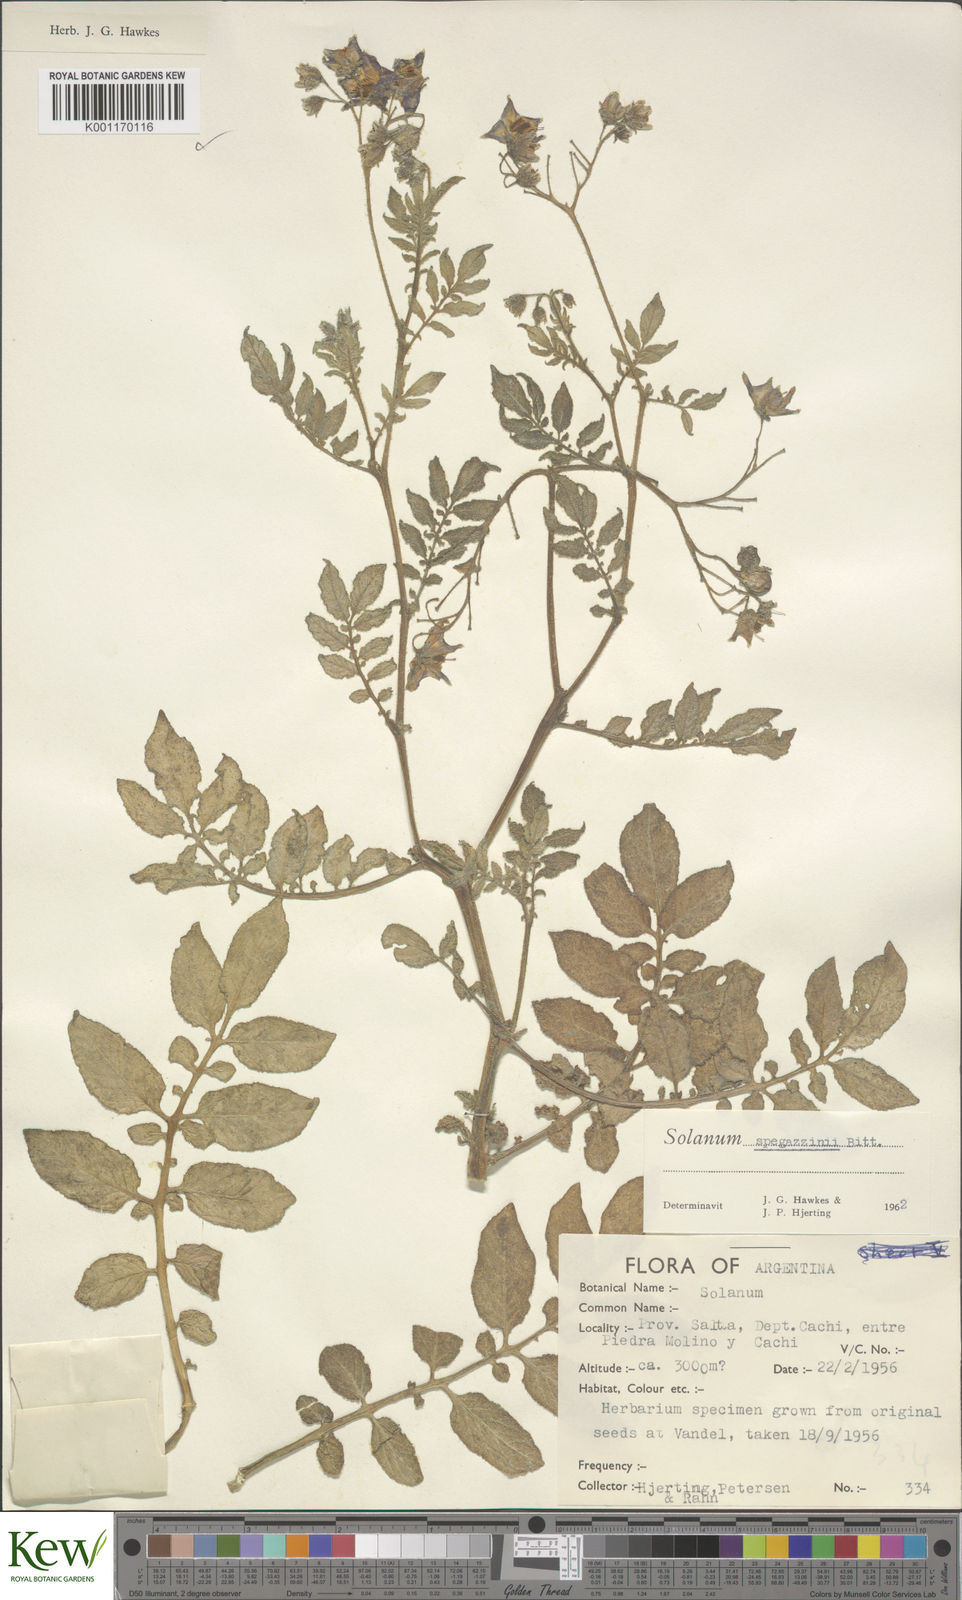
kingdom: Plantae
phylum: Tracheophyta
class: Magnoliopsida
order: Solanales
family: Solanaceae
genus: Solanum
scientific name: Solanum brevicaule
